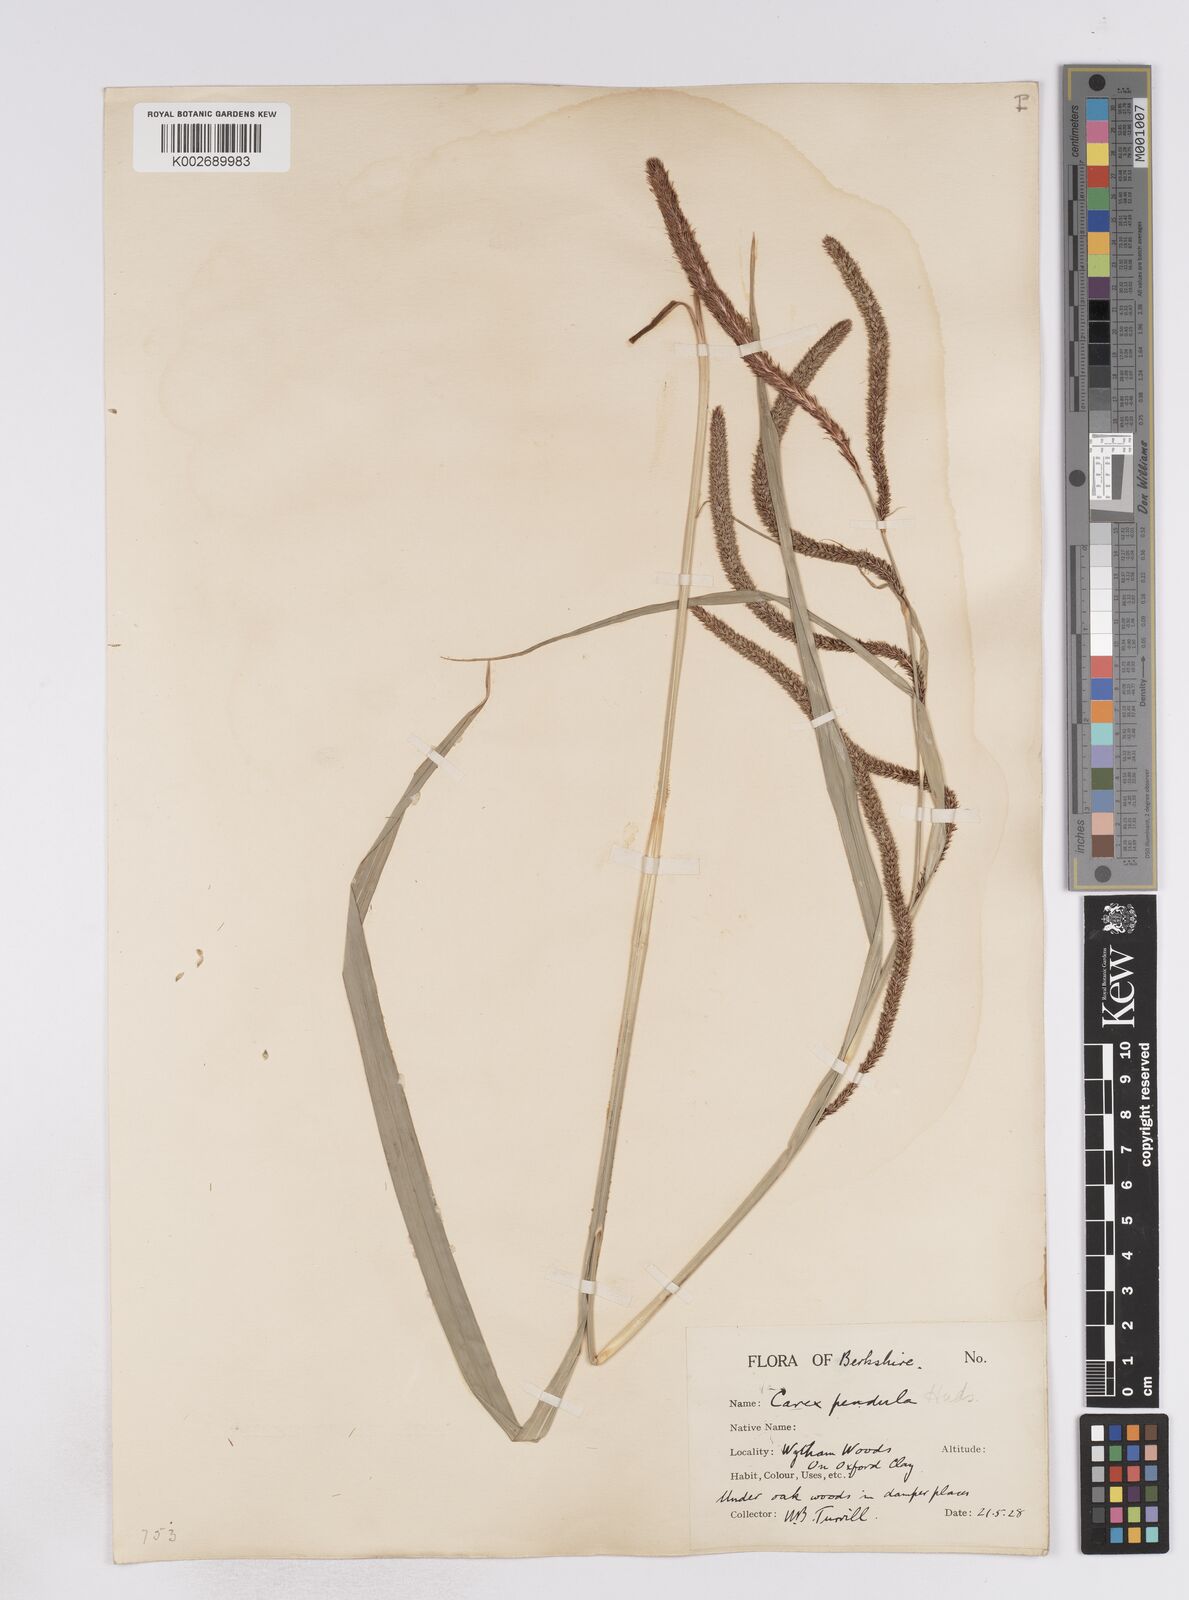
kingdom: Plantae
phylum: Tracheophyta
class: Liliopsida
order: Poales
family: Cyperaceae
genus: Carex
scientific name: Carex pendula
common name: Pendulous sedge
